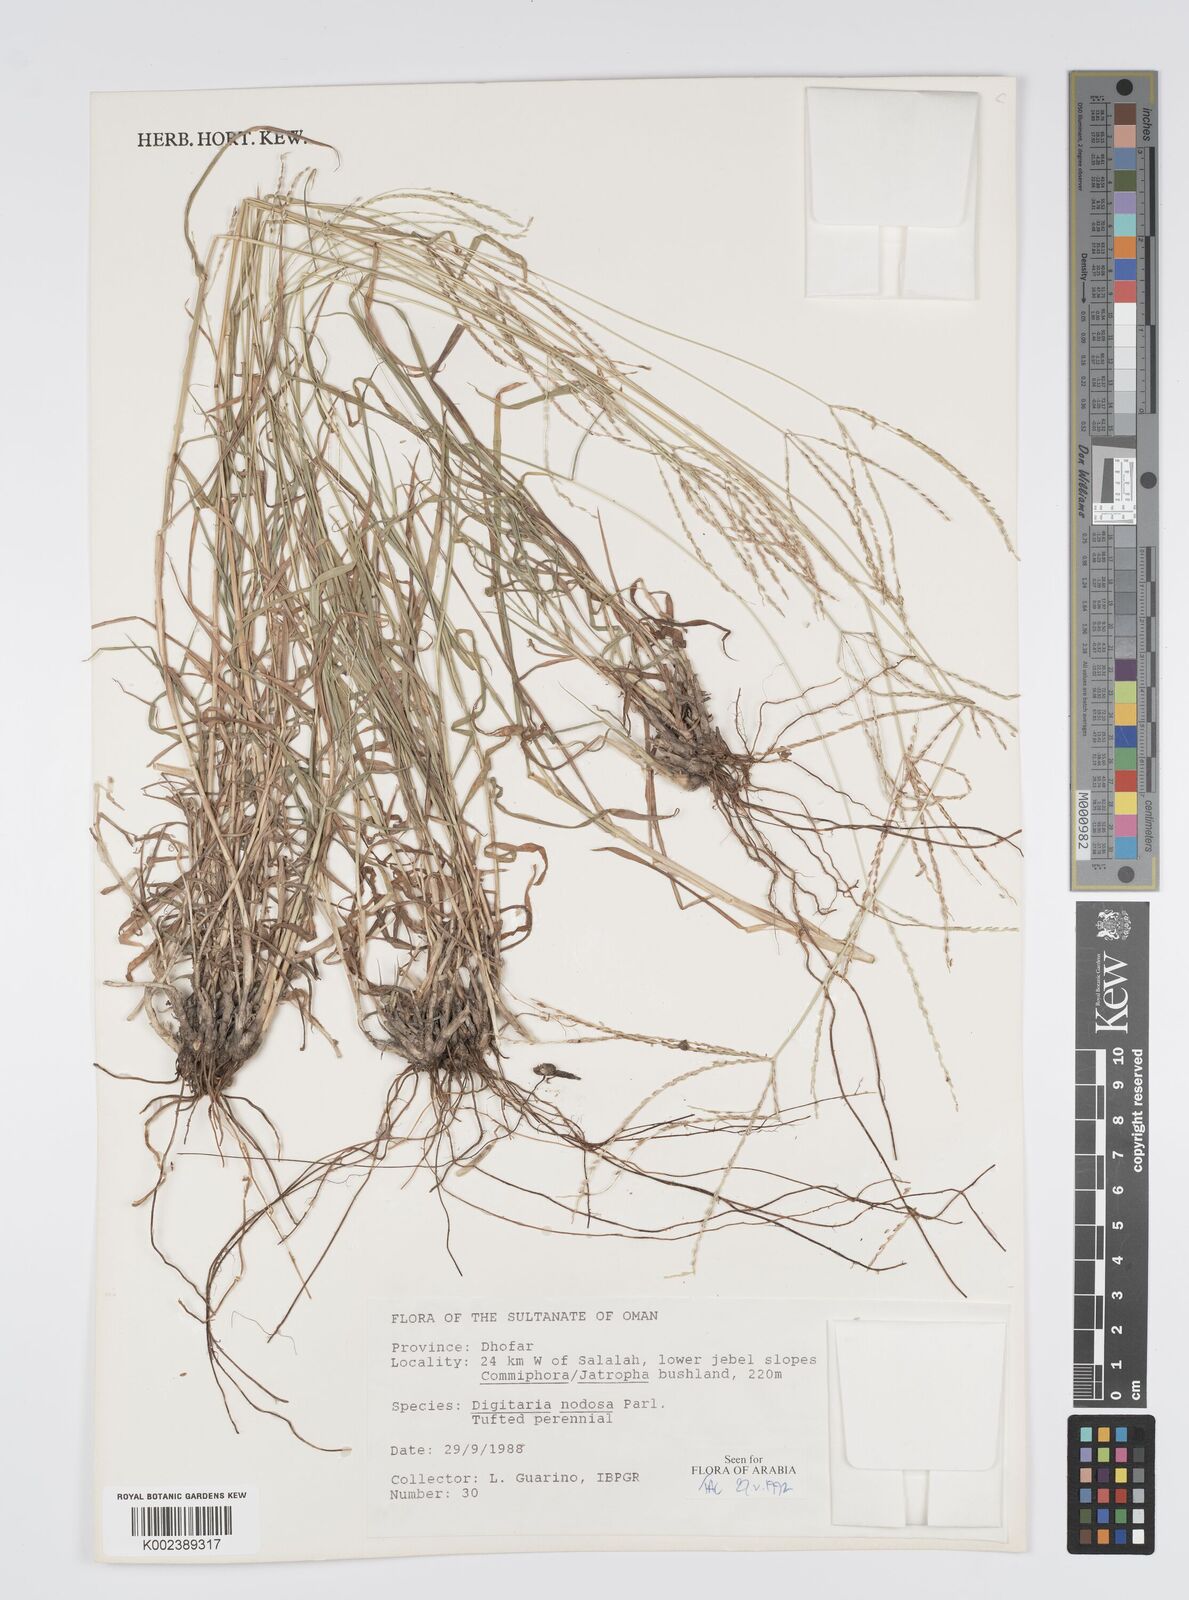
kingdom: Plantae
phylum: Tracheophyta
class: Liliopsida
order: Poales
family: Poaceae
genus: Digitaria
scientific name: Digitaria nodosa
